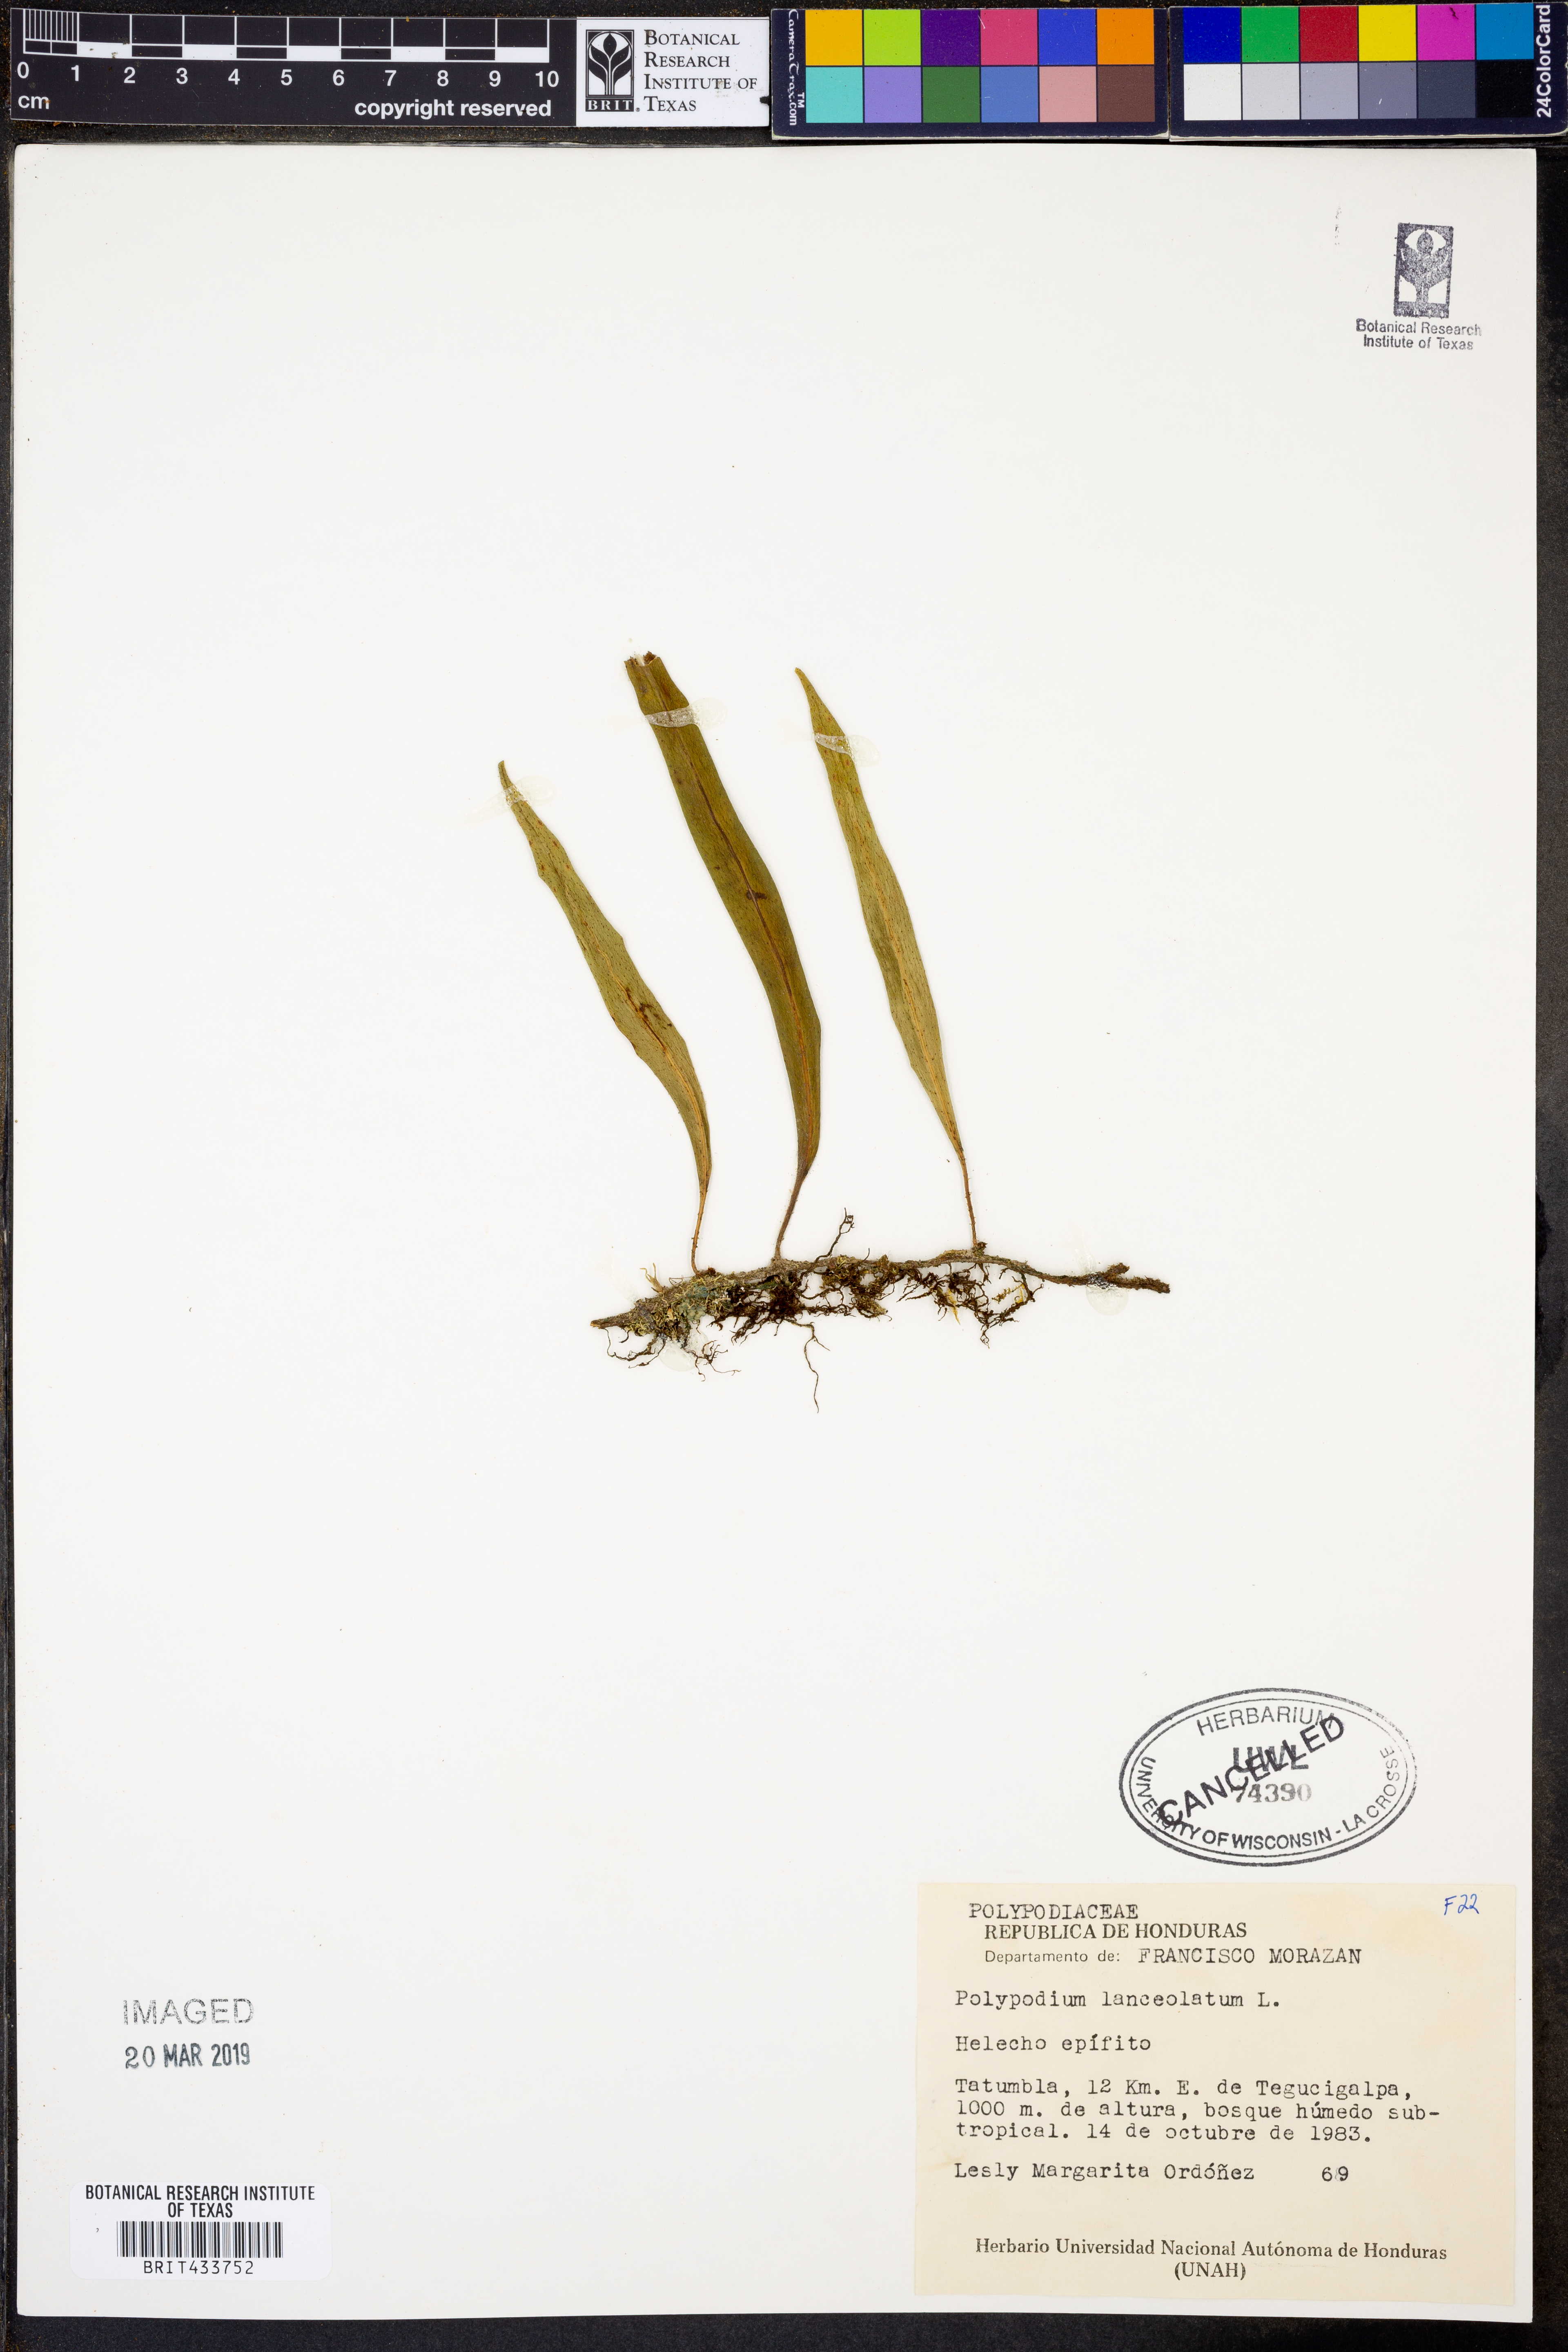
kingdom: Plantae
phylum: Tracheophyta
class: Polypodiopsida
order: Polypodiales
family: Polypodiaceae
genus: Pleopeltis
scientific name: Pleopeltis macrocarpa
